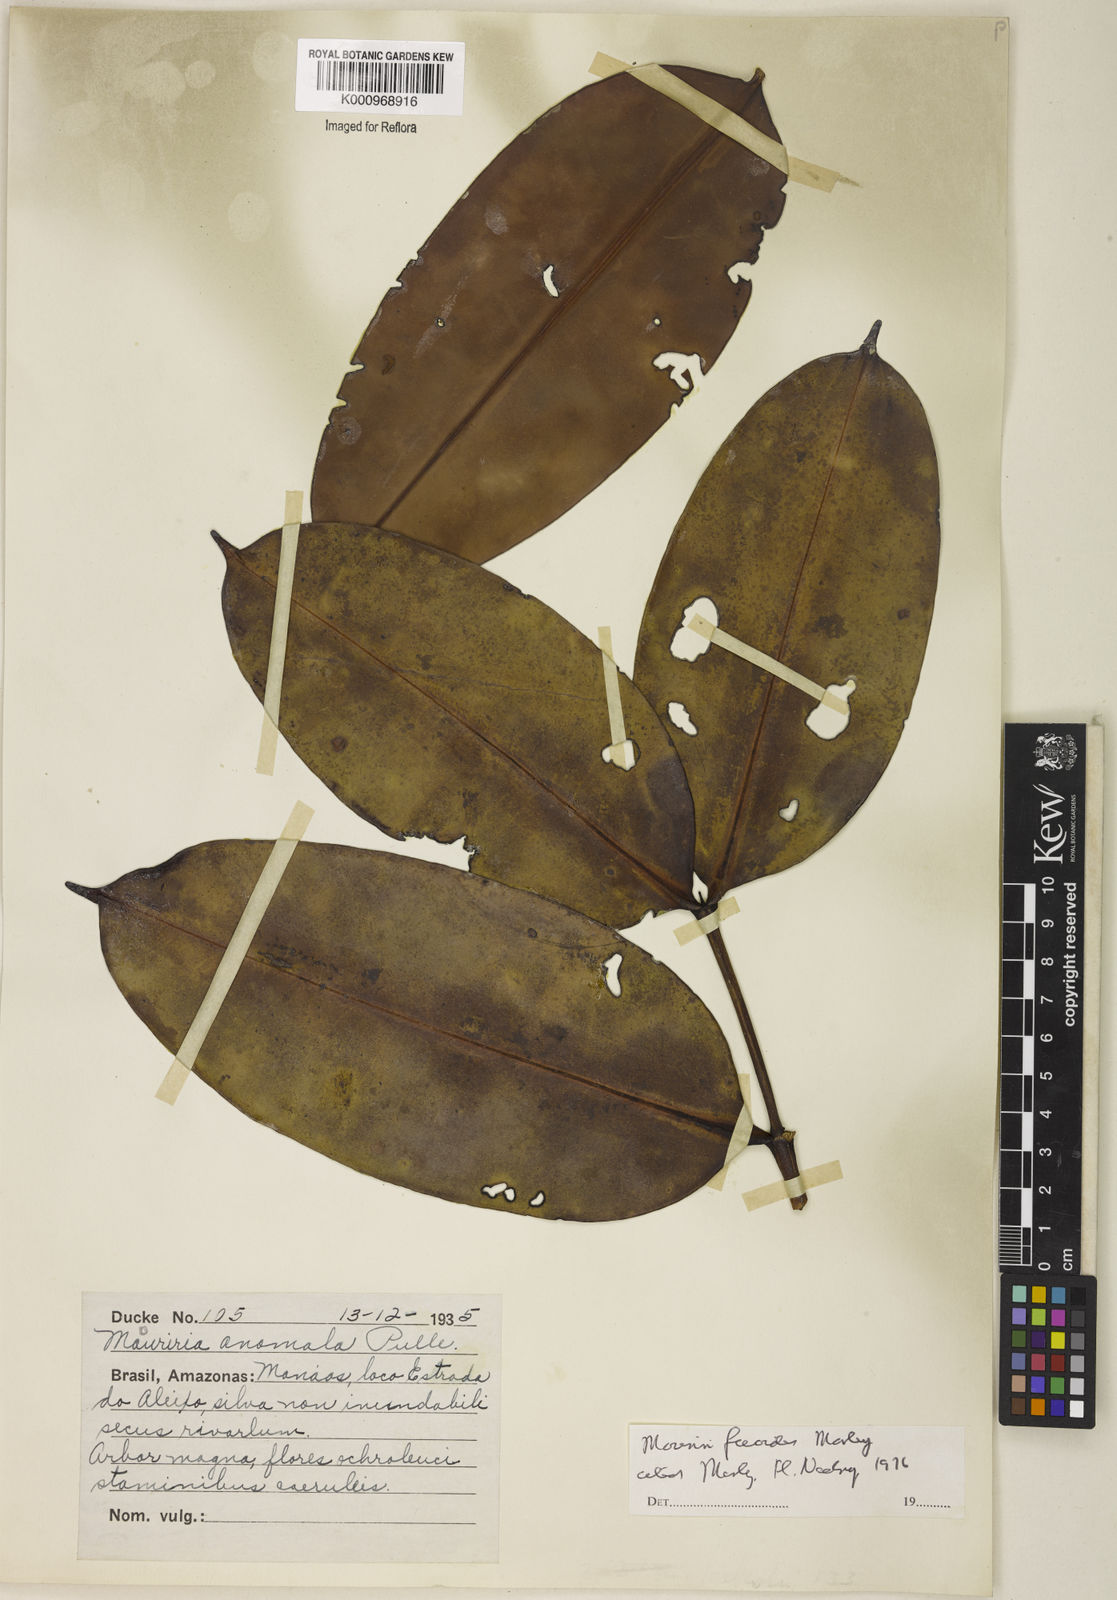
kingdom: Plantae
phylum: Tracheophyta
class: Magnoliopsida
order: Myrtales
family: Melastomataceae
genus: Mouriri
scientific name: Mouriri ficoides
